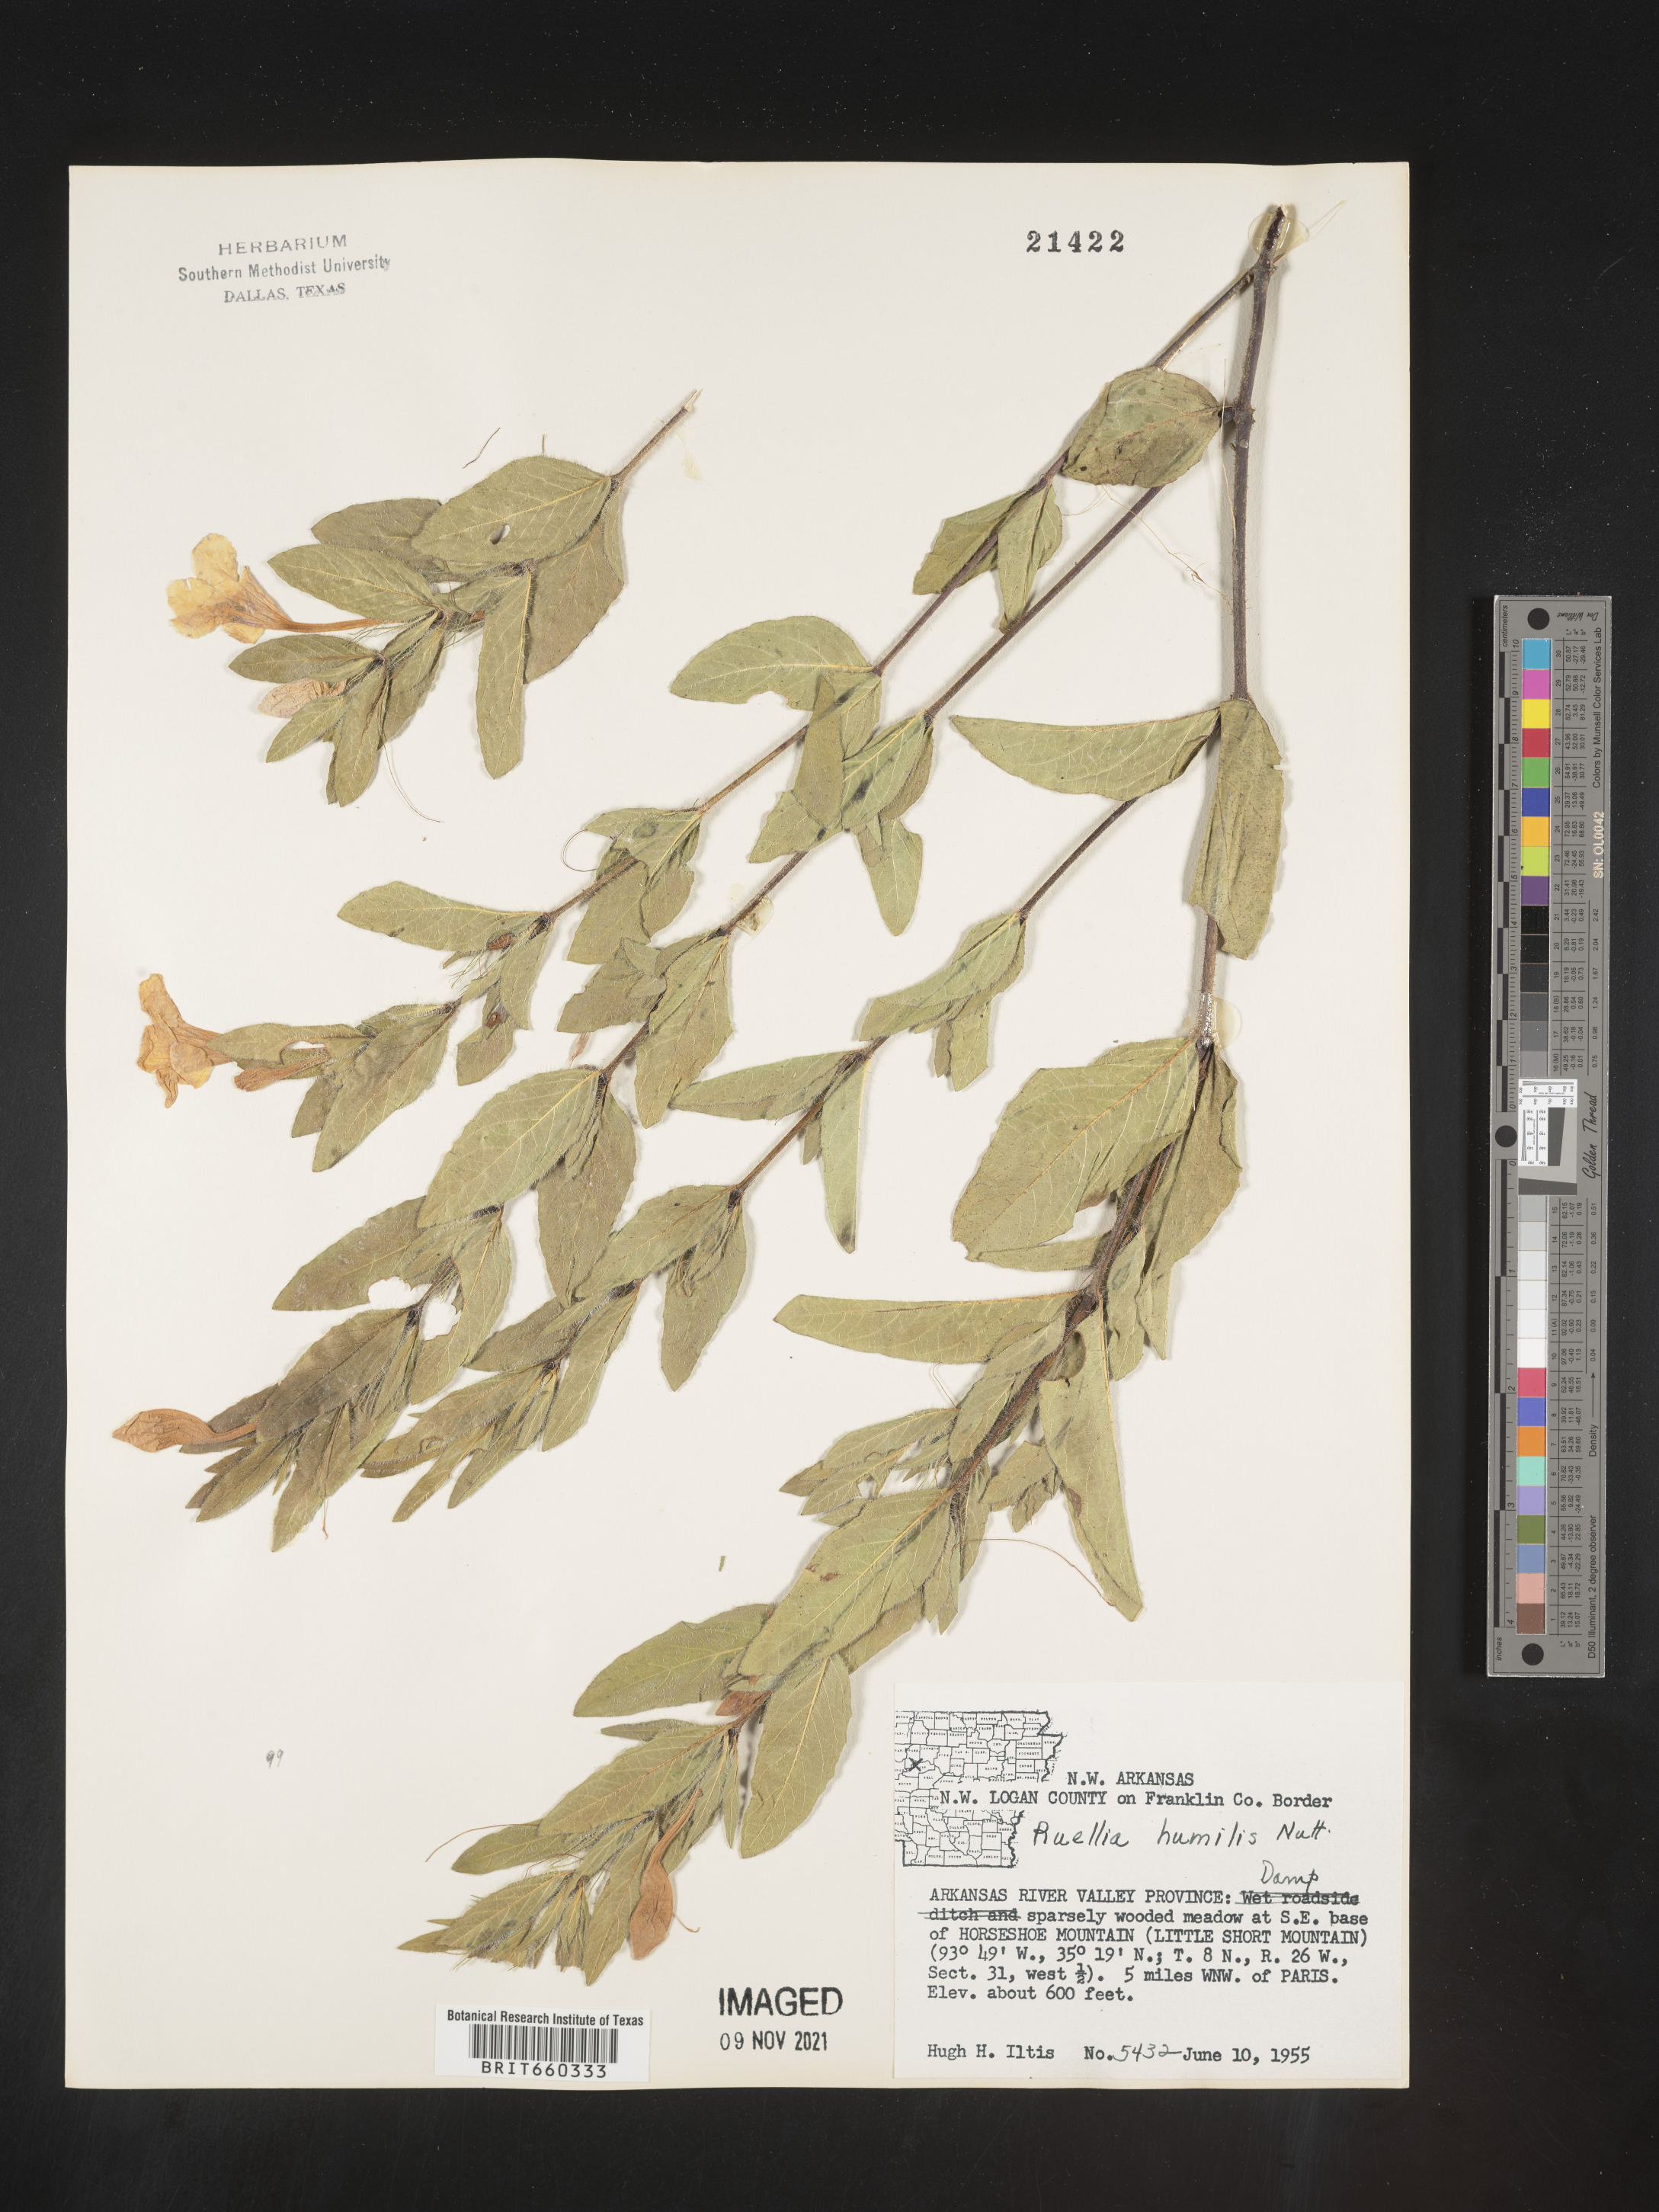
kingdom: Plantae
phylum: Tracheophyta
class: Magnoliopsida
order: Lamiales
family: Acanthaceae
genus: Ruellia
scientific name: Ruellia humilis
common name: Fringe-leaf ruellia
